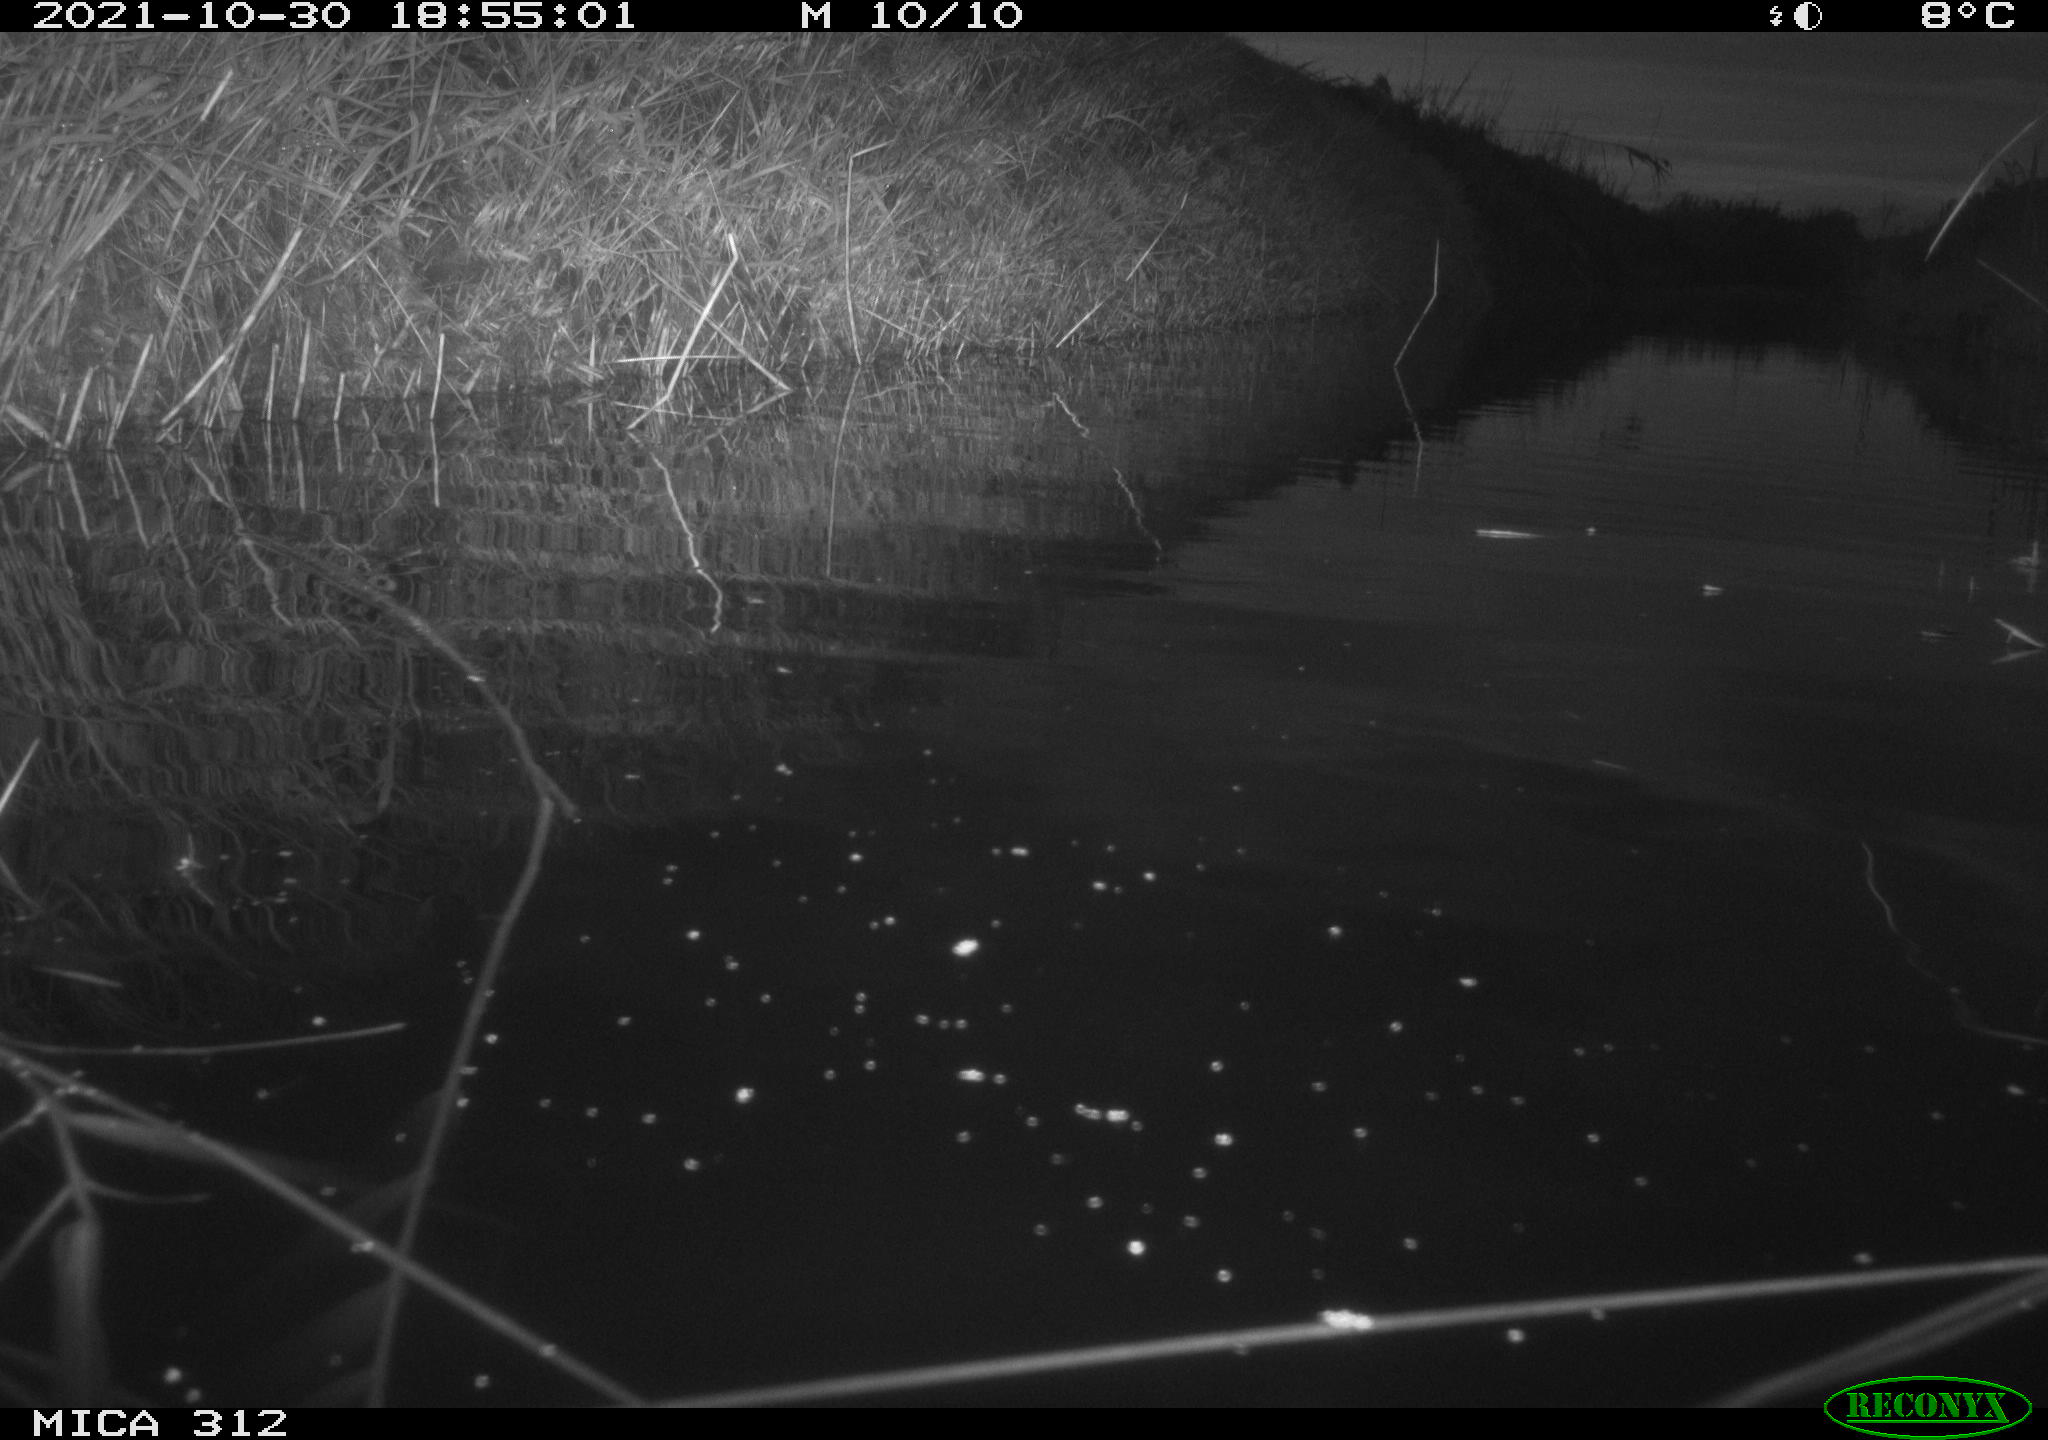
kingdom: Animalia
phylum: Chordata
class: Mammalia
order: Rodentia
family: Muridae
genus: Rattus
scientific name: Rattus norvegicus
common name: Brown rat
